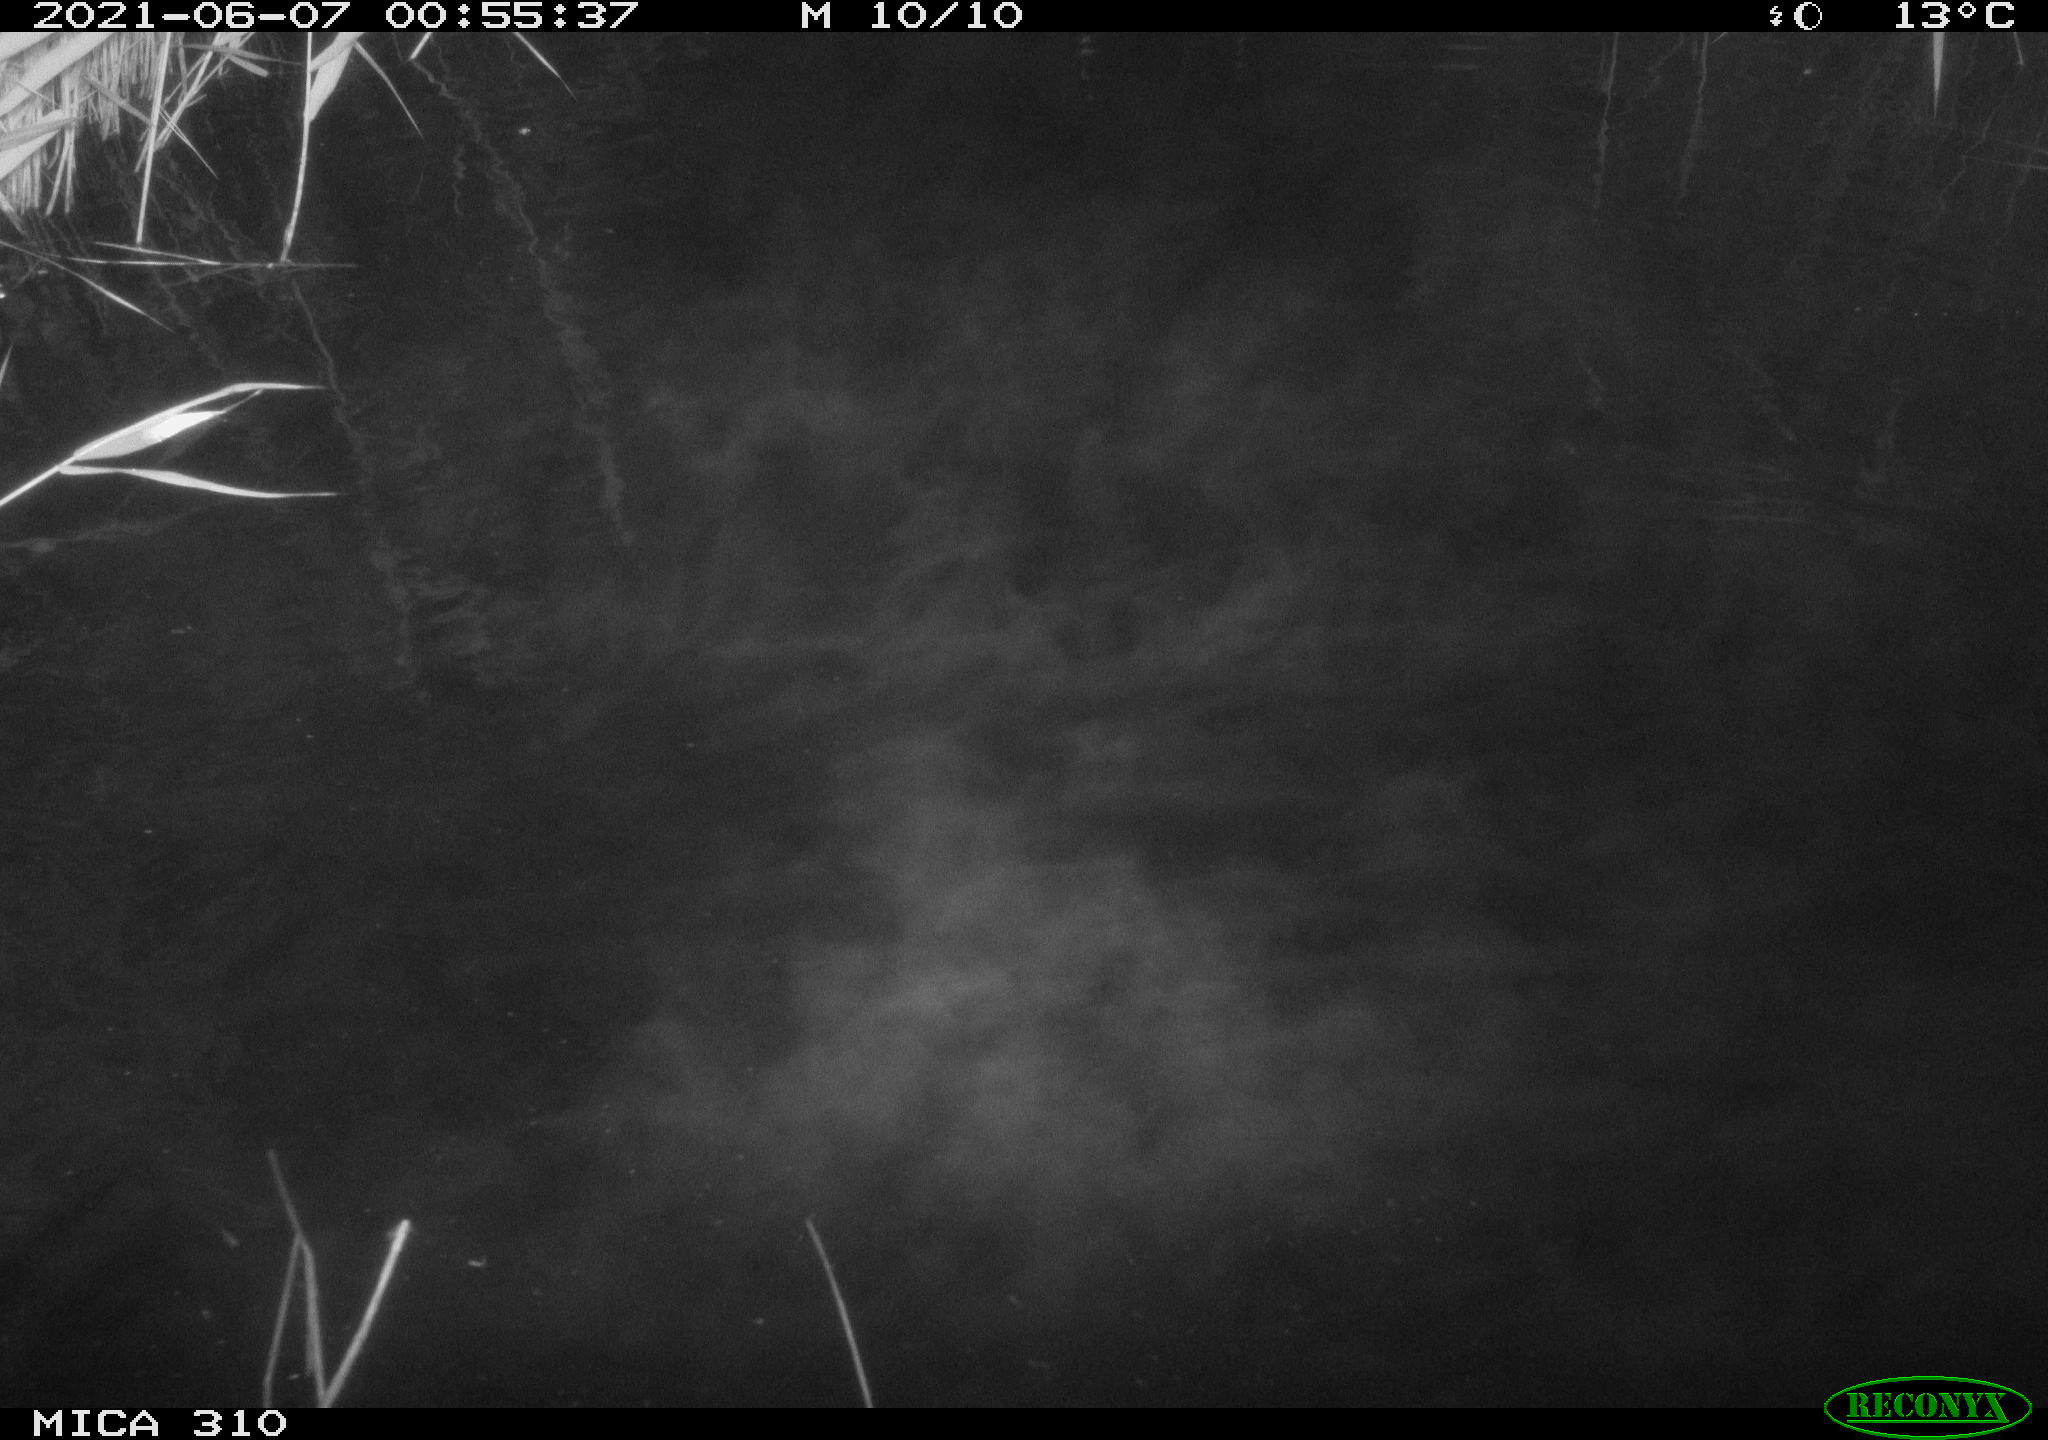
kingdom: Animalia
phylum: Chordata
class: Mammalia
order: Rodentia
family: Cricetidae
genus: Ondatra
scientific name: Ondatra zibethicus
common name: Muskrat
